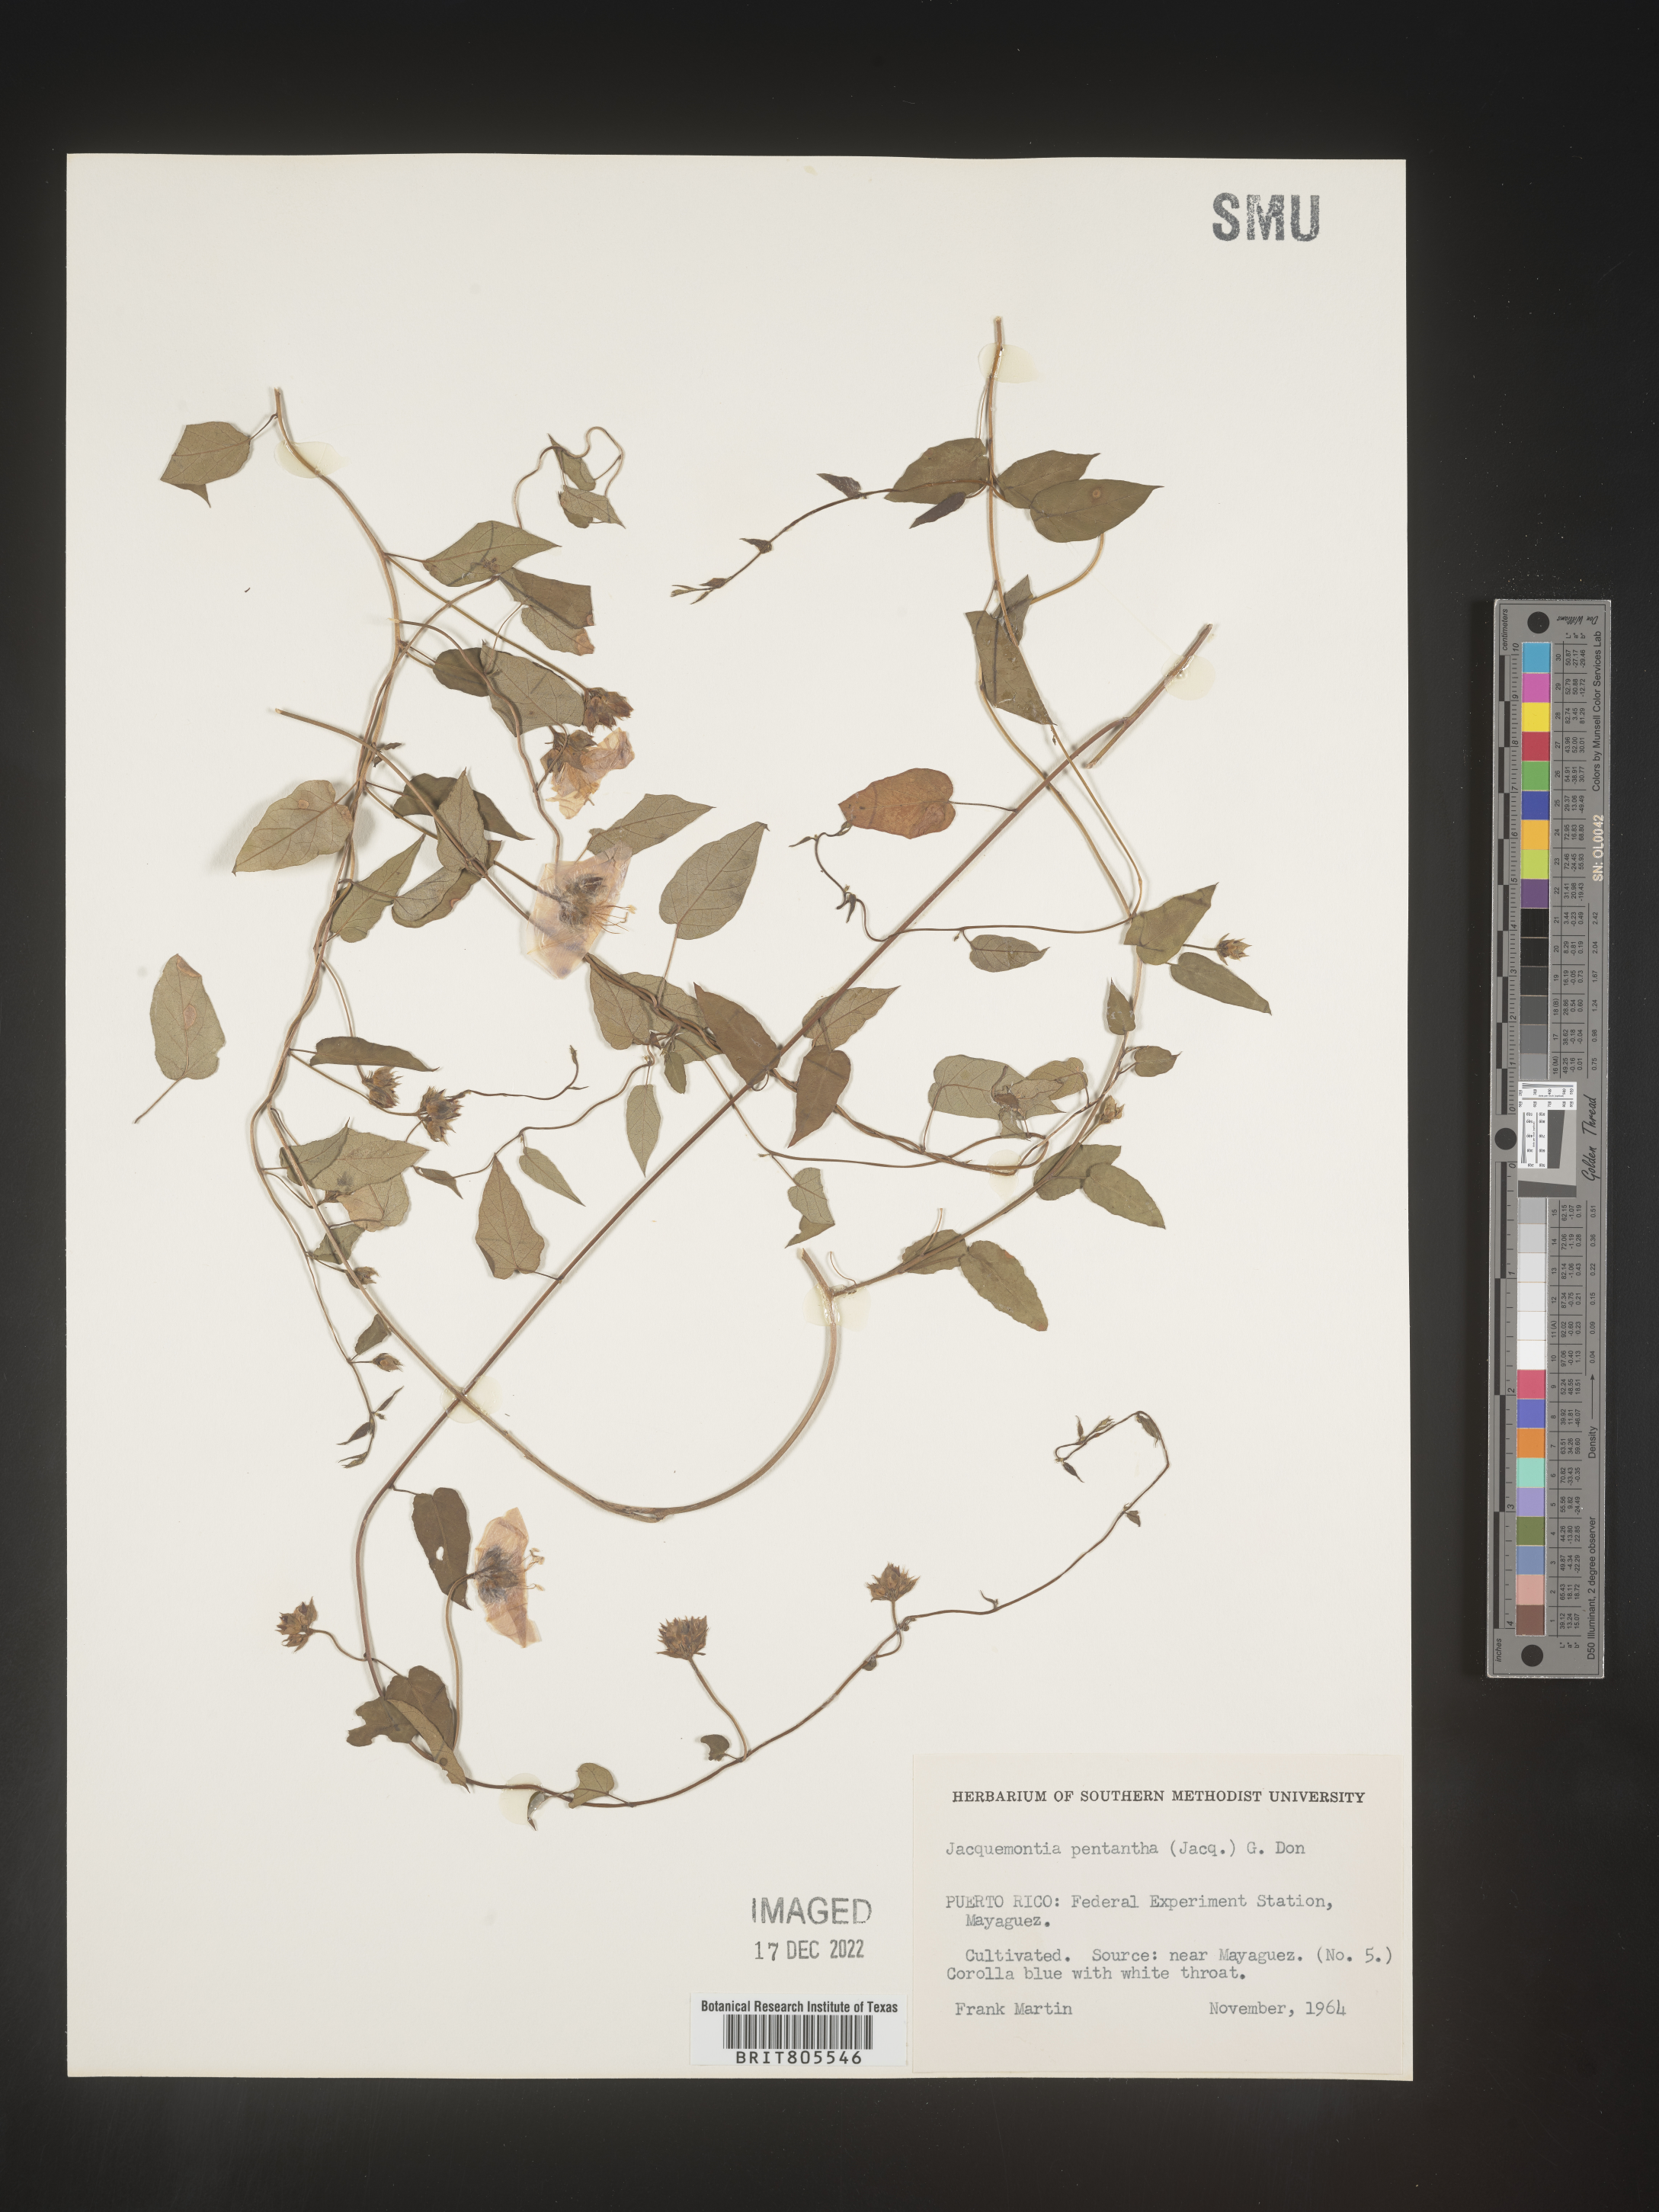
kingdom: Plantae
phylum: Tracheophyta
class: Magnoliopsida
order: Solanales
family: Convolvulaceae
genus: Jacquemontia
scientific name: Jacquemontia
